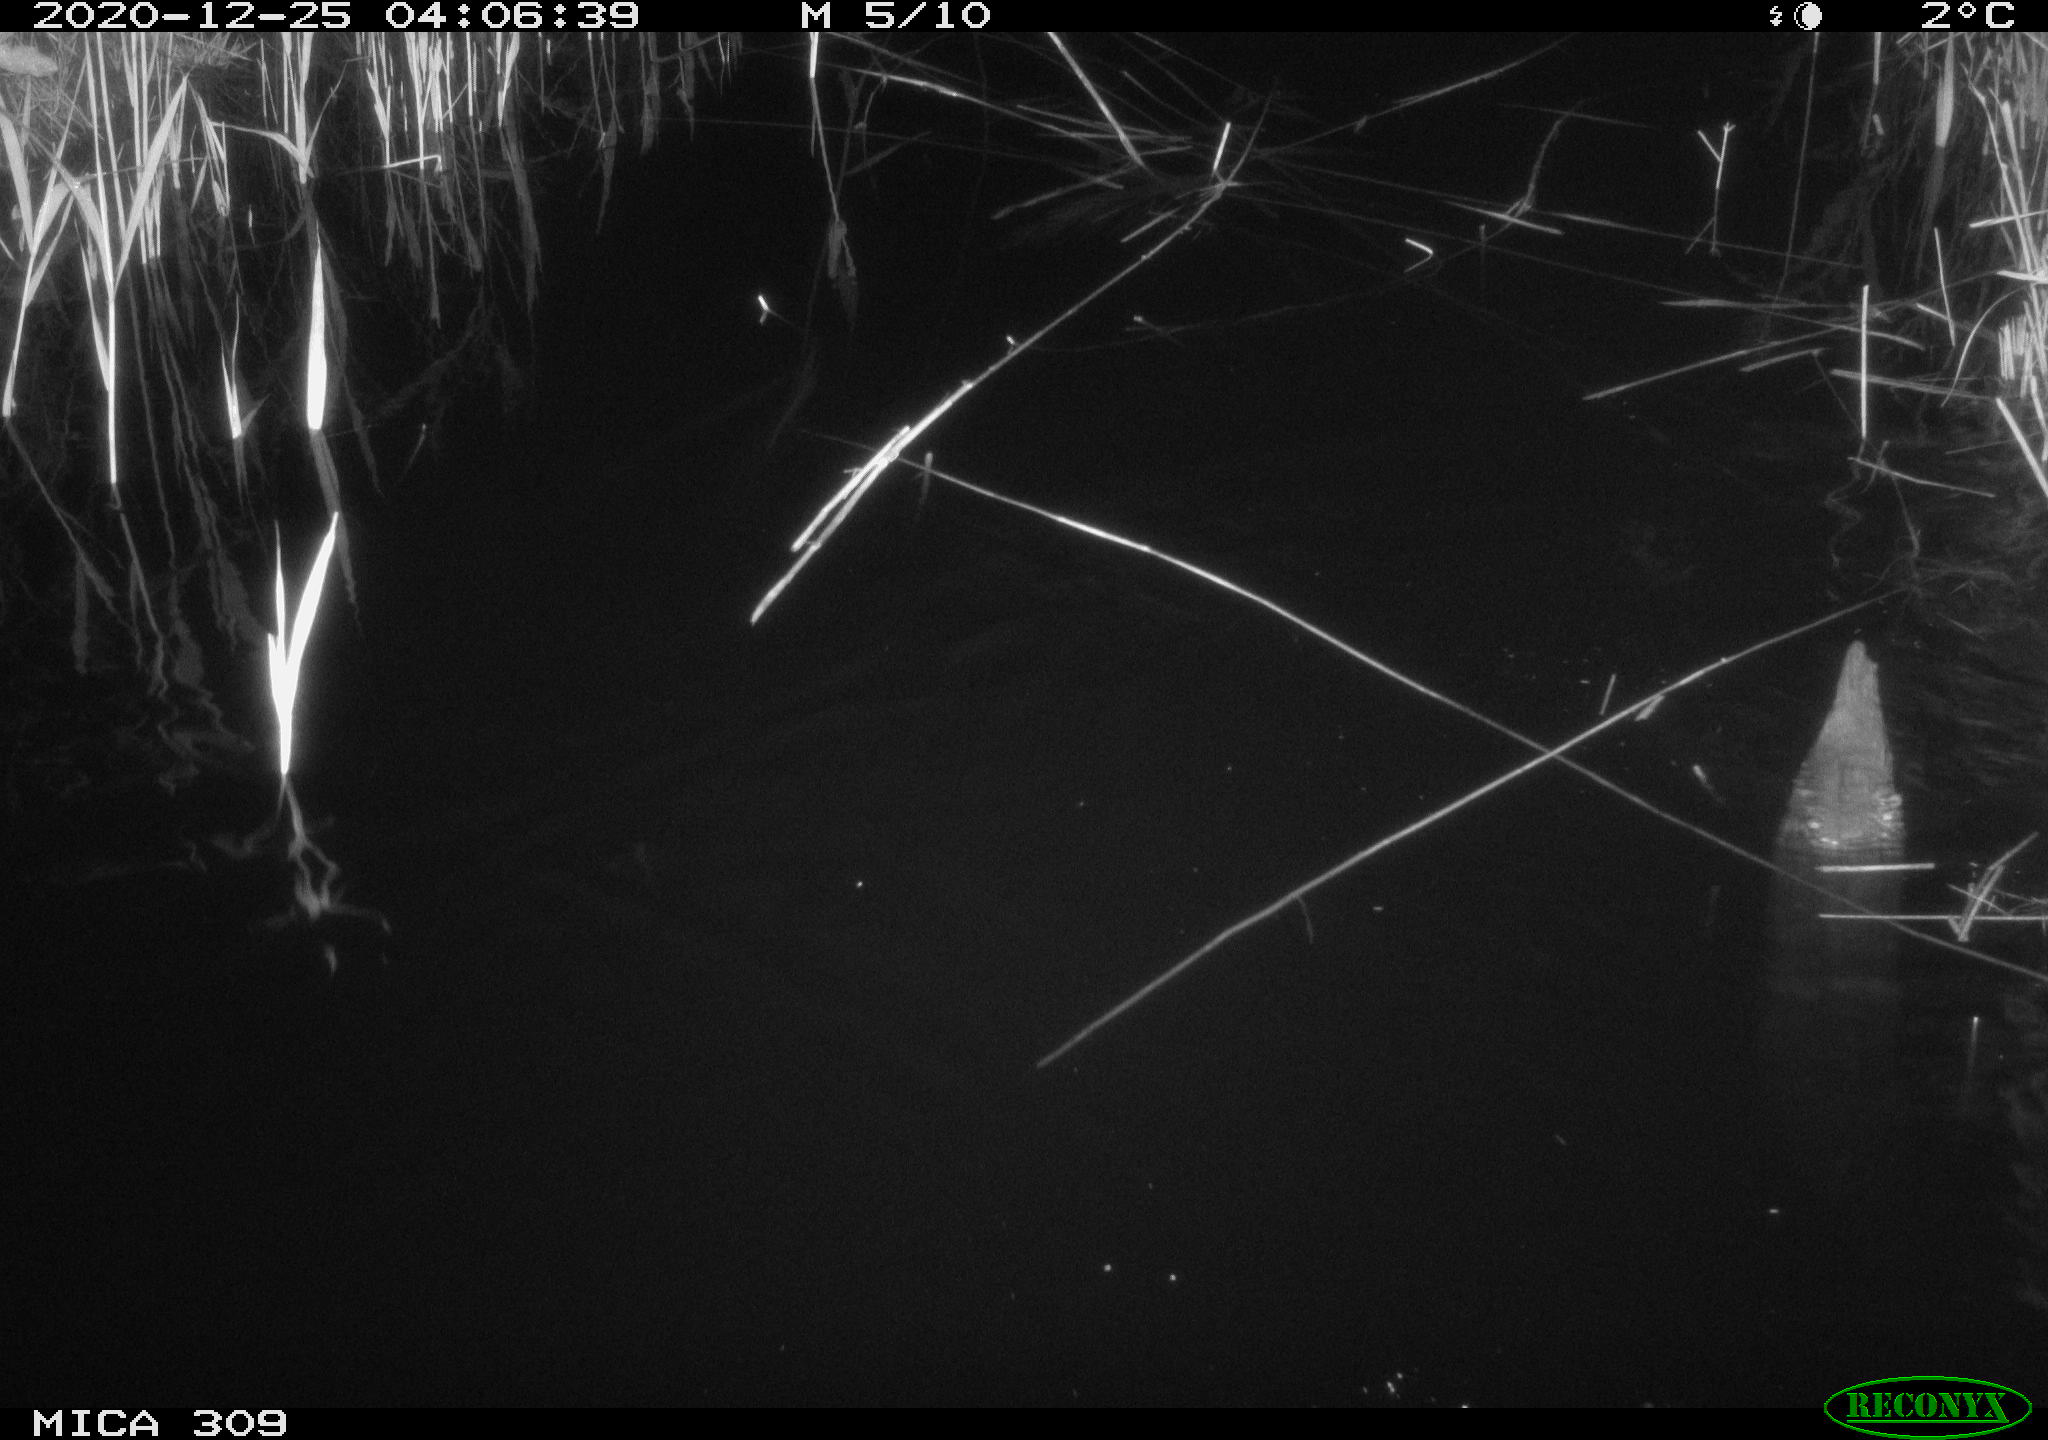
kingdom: Animalia
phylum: Chordata
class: Mammalia
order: Rodentia
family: Muridae
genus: Rattus
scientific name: Rattus norvegicus
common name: Brown rat
